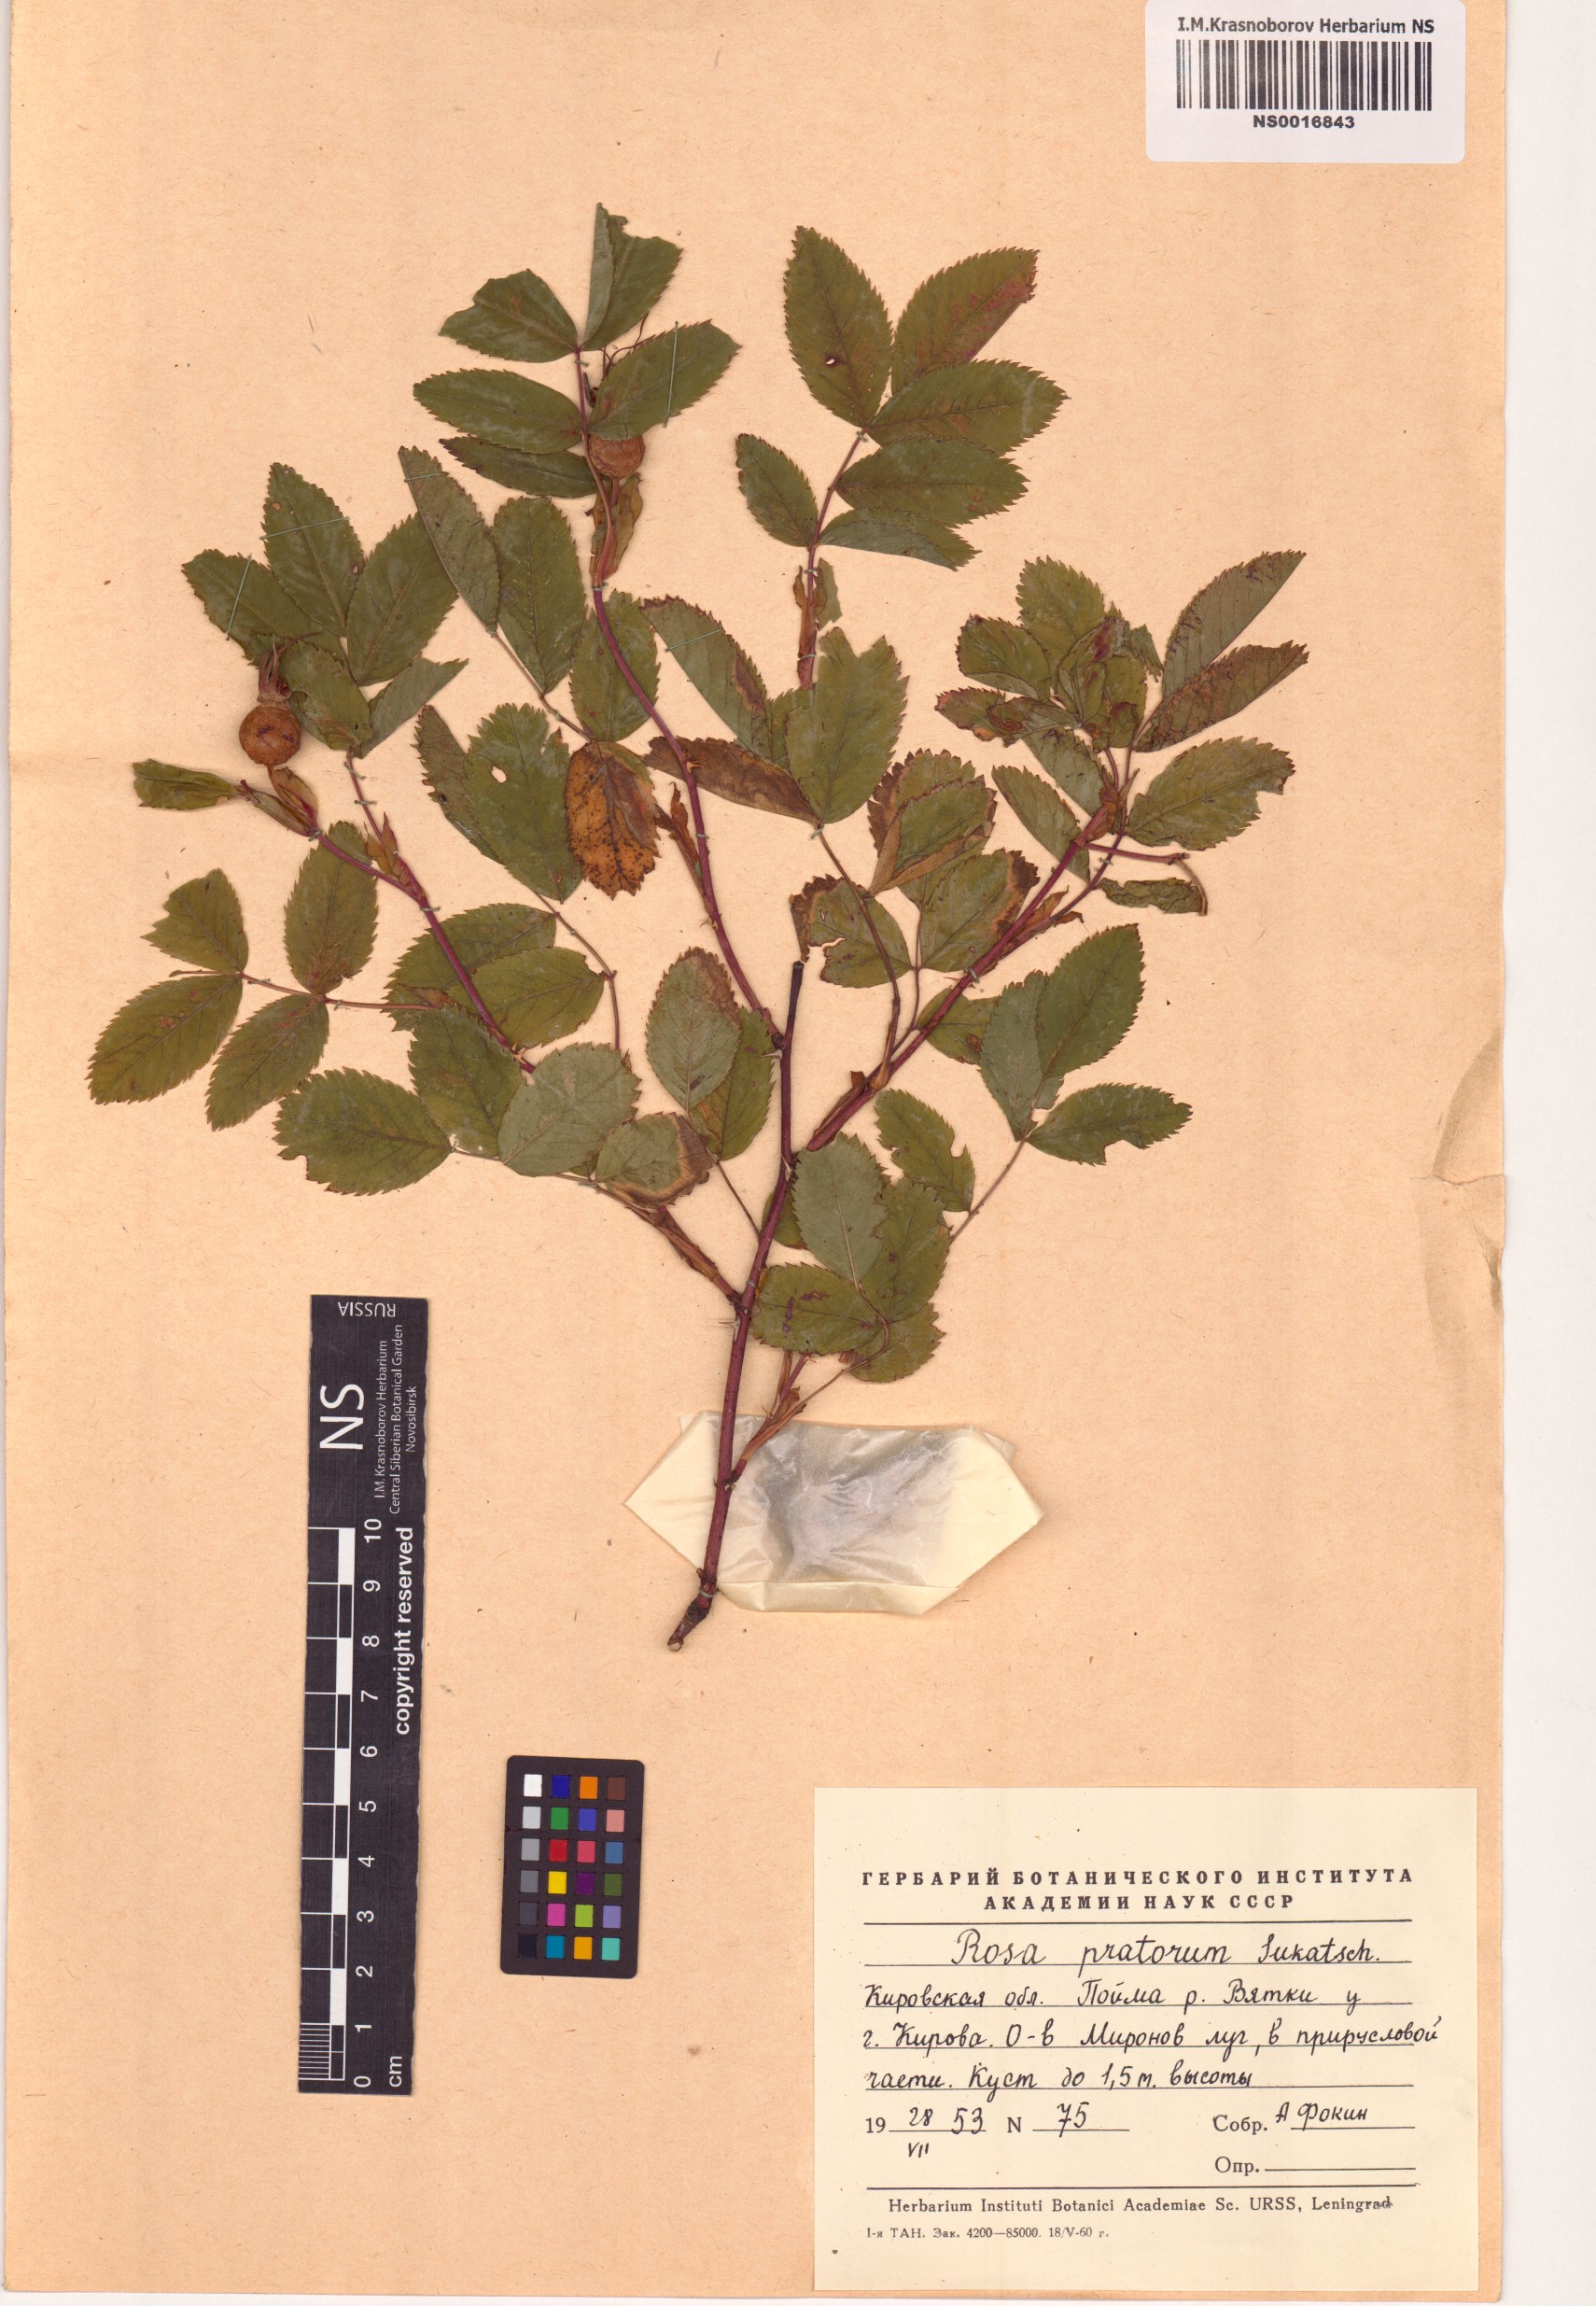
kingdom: Plantae
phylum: Tracheophyta
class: Magnoliopsida
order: Rosales
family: Rosaceae
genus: Rosa
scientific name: Rosa glabrifolia
